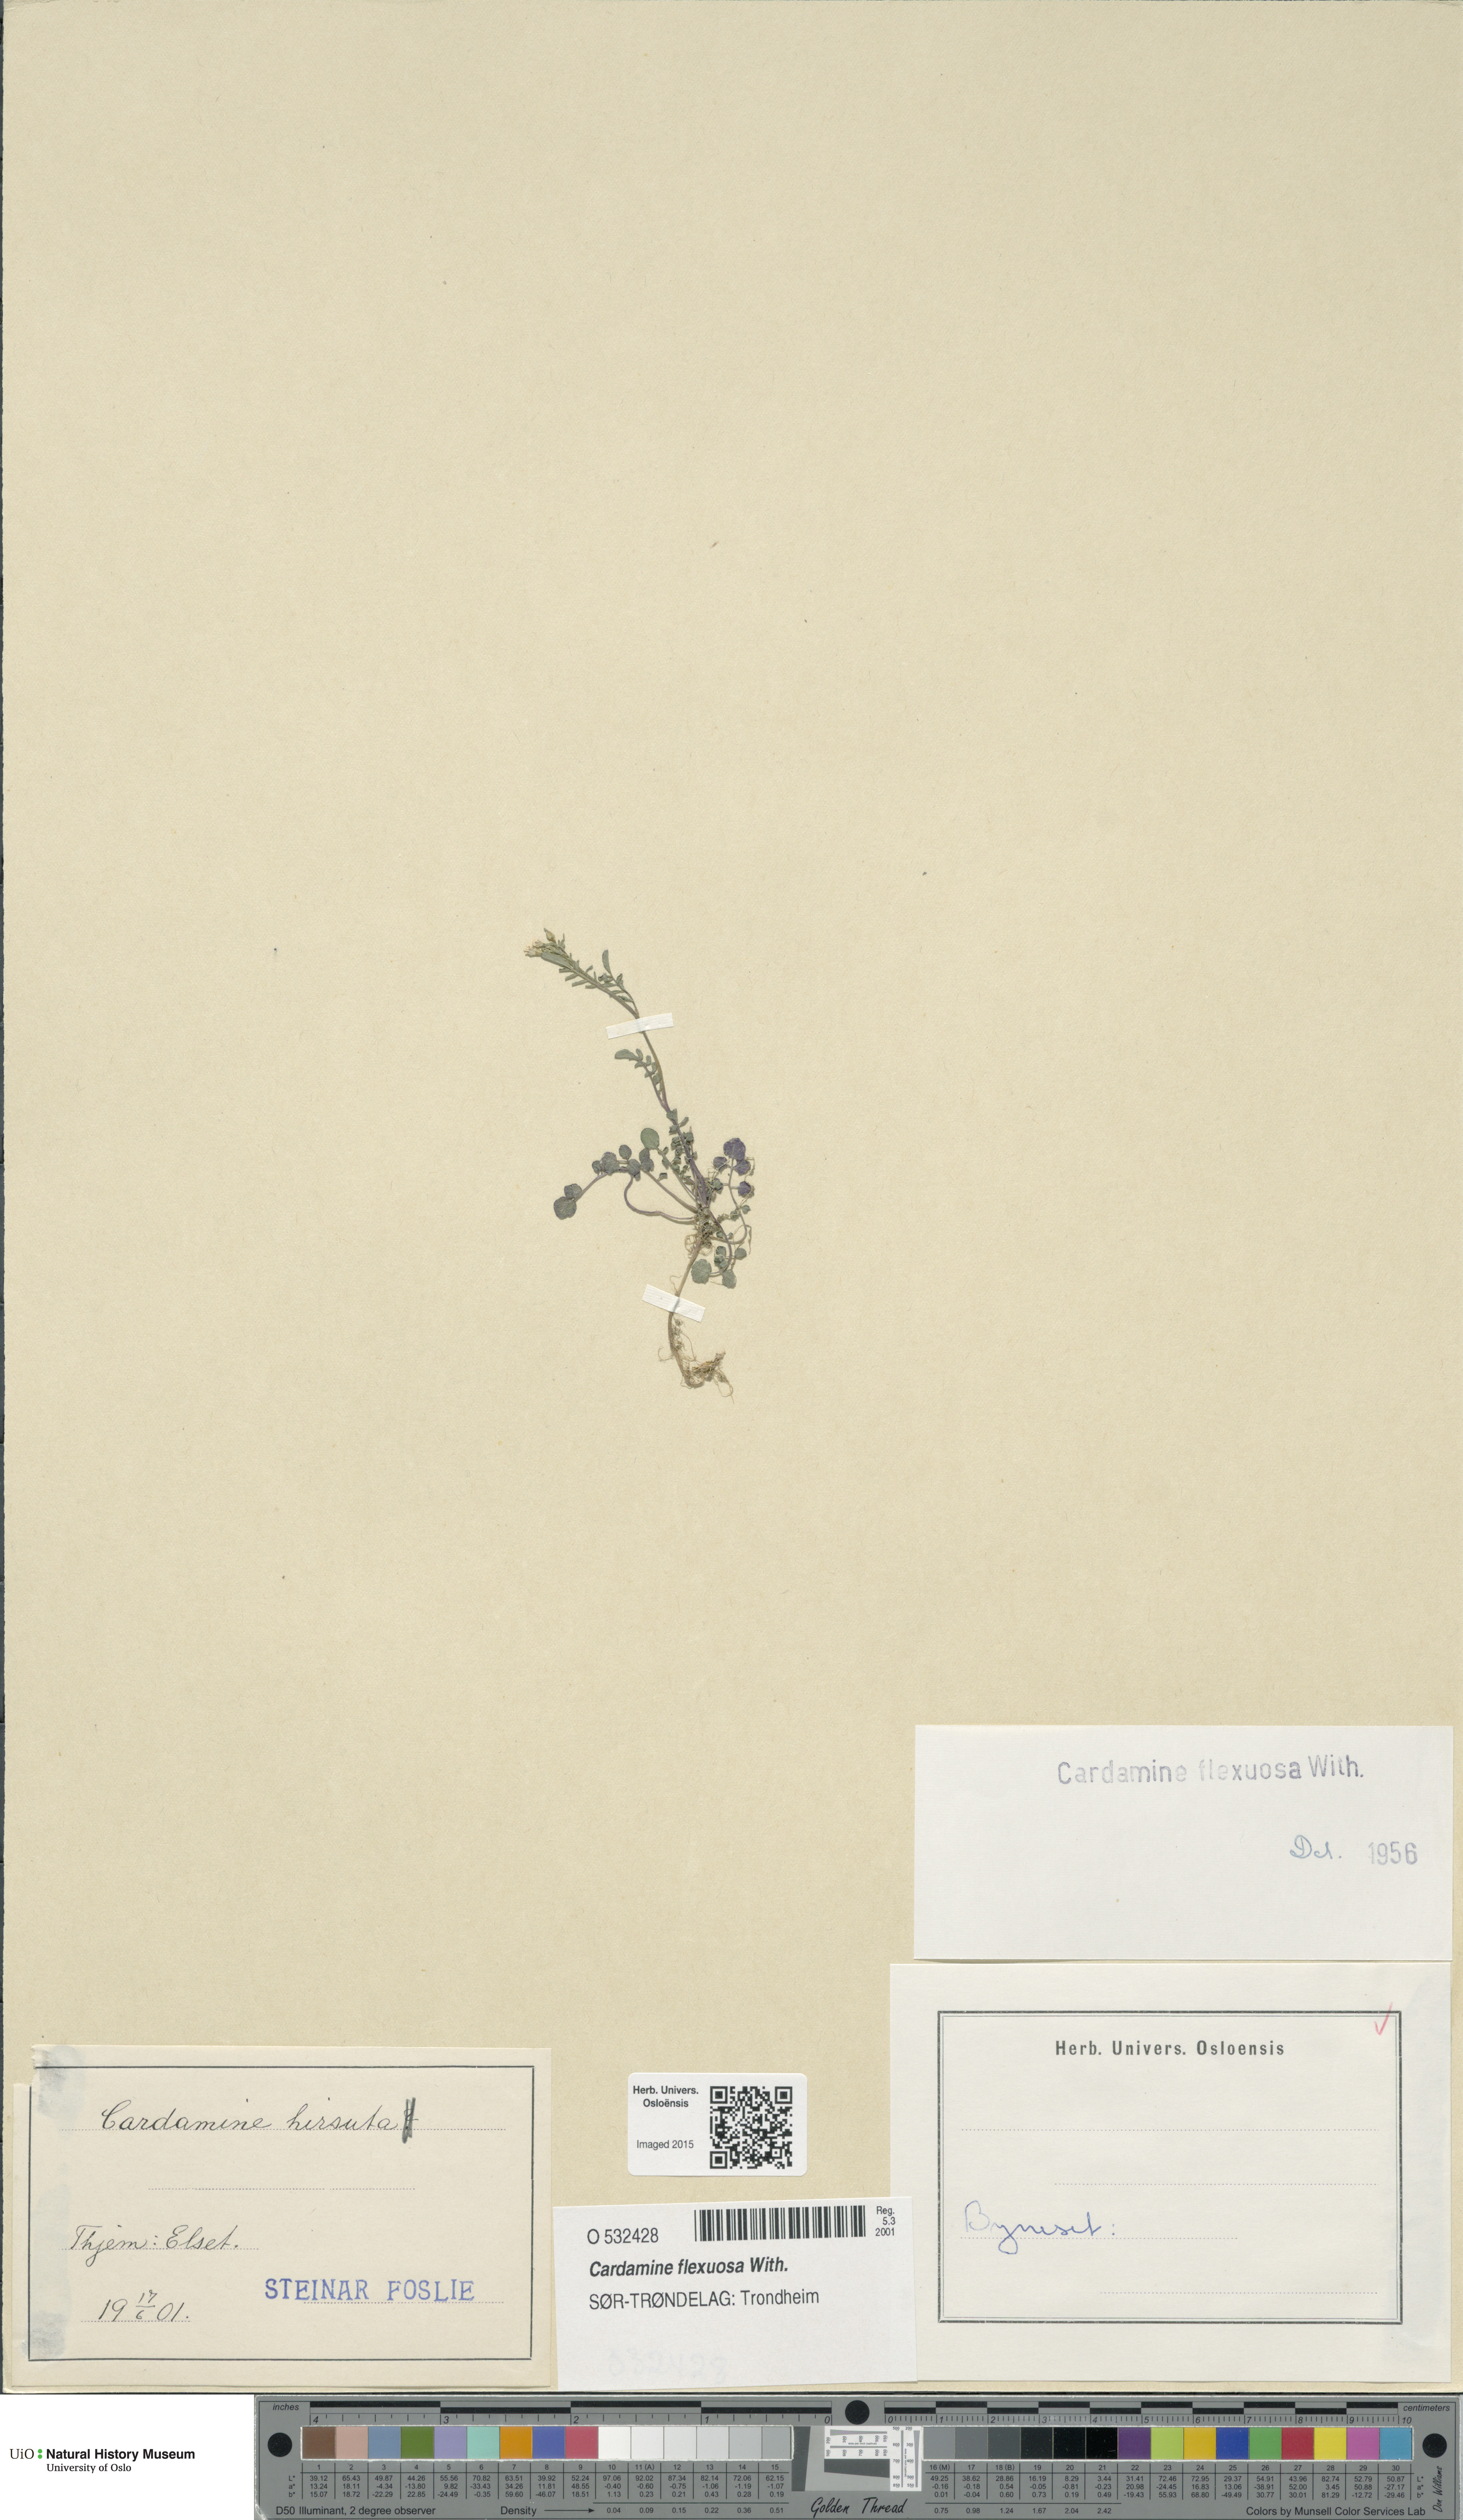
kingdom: Plantae
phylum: Tracheophyta
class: Magnoliopsida
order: Brassicales
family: Brassicaceae
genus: Cardamine
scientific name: Cardamine flexuosa
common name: Woodland bittercress
